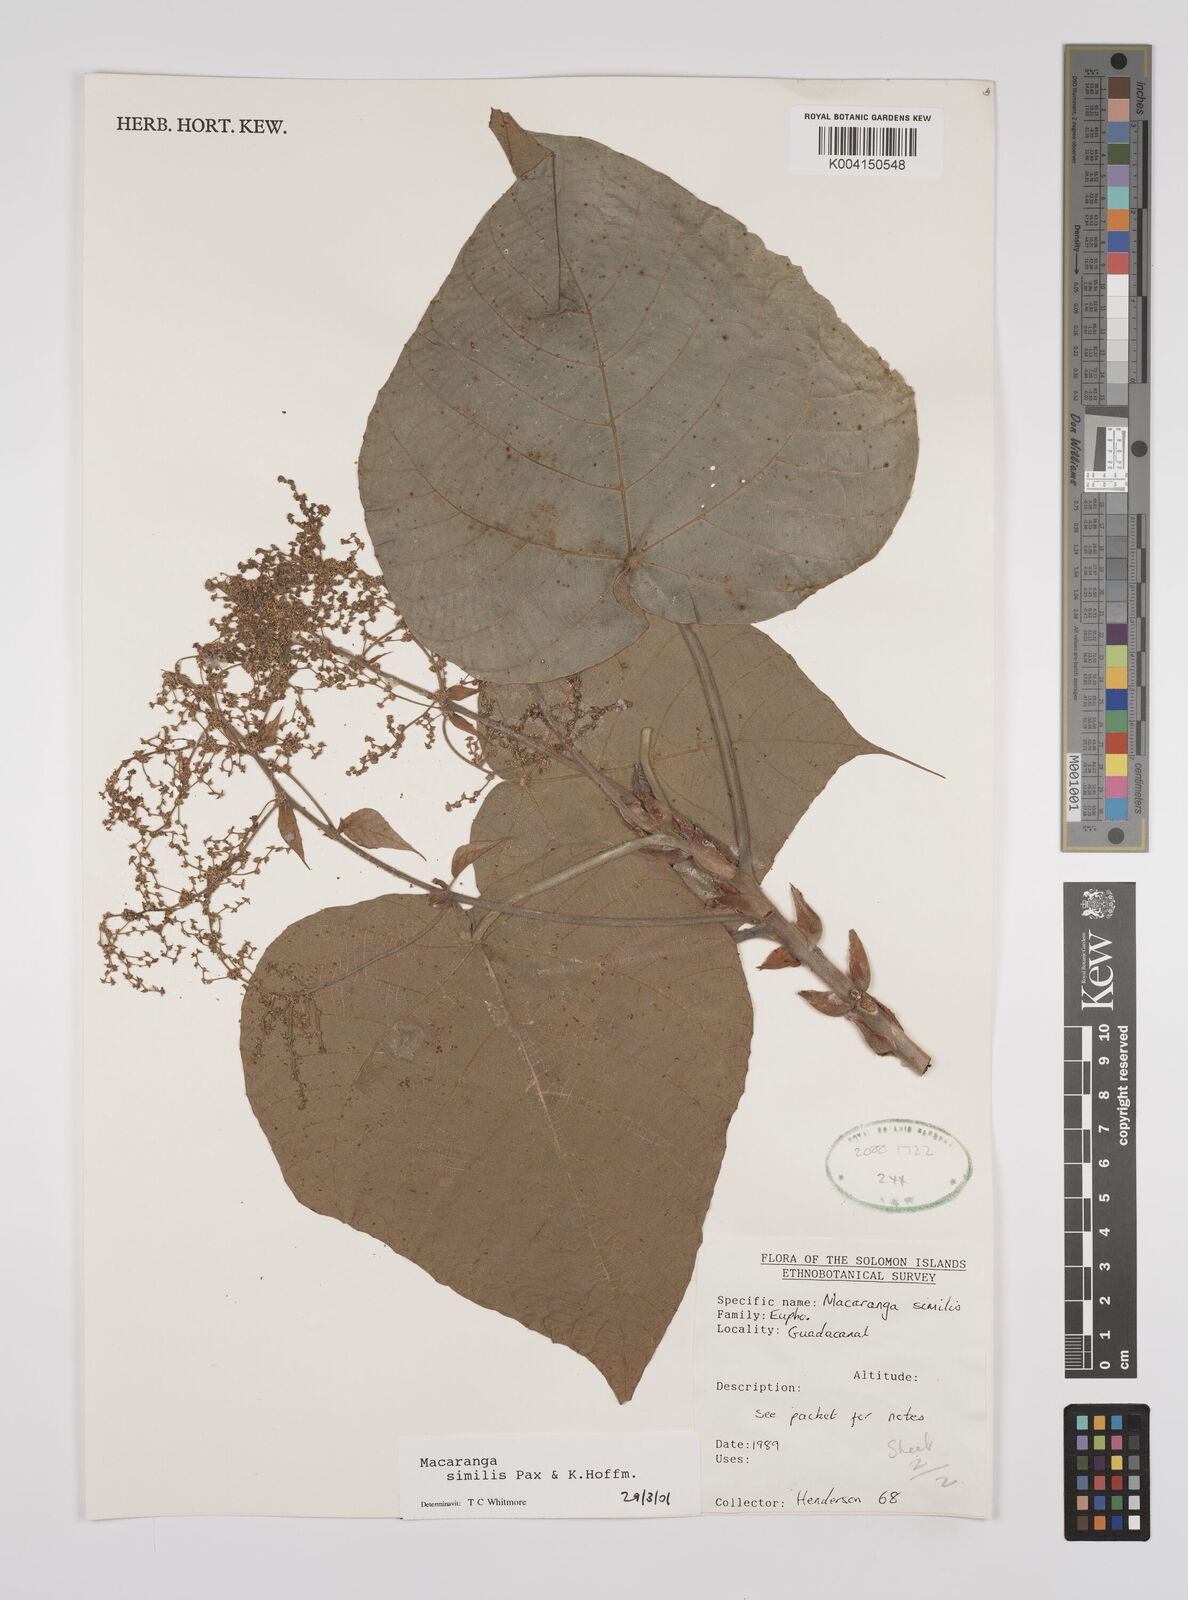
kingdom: Plantae
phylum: Tracheophyta
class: Magnoliopsida
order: Malpighiales
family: Euphorbiaceae
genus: Macaranga
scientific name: Macaranga similis
